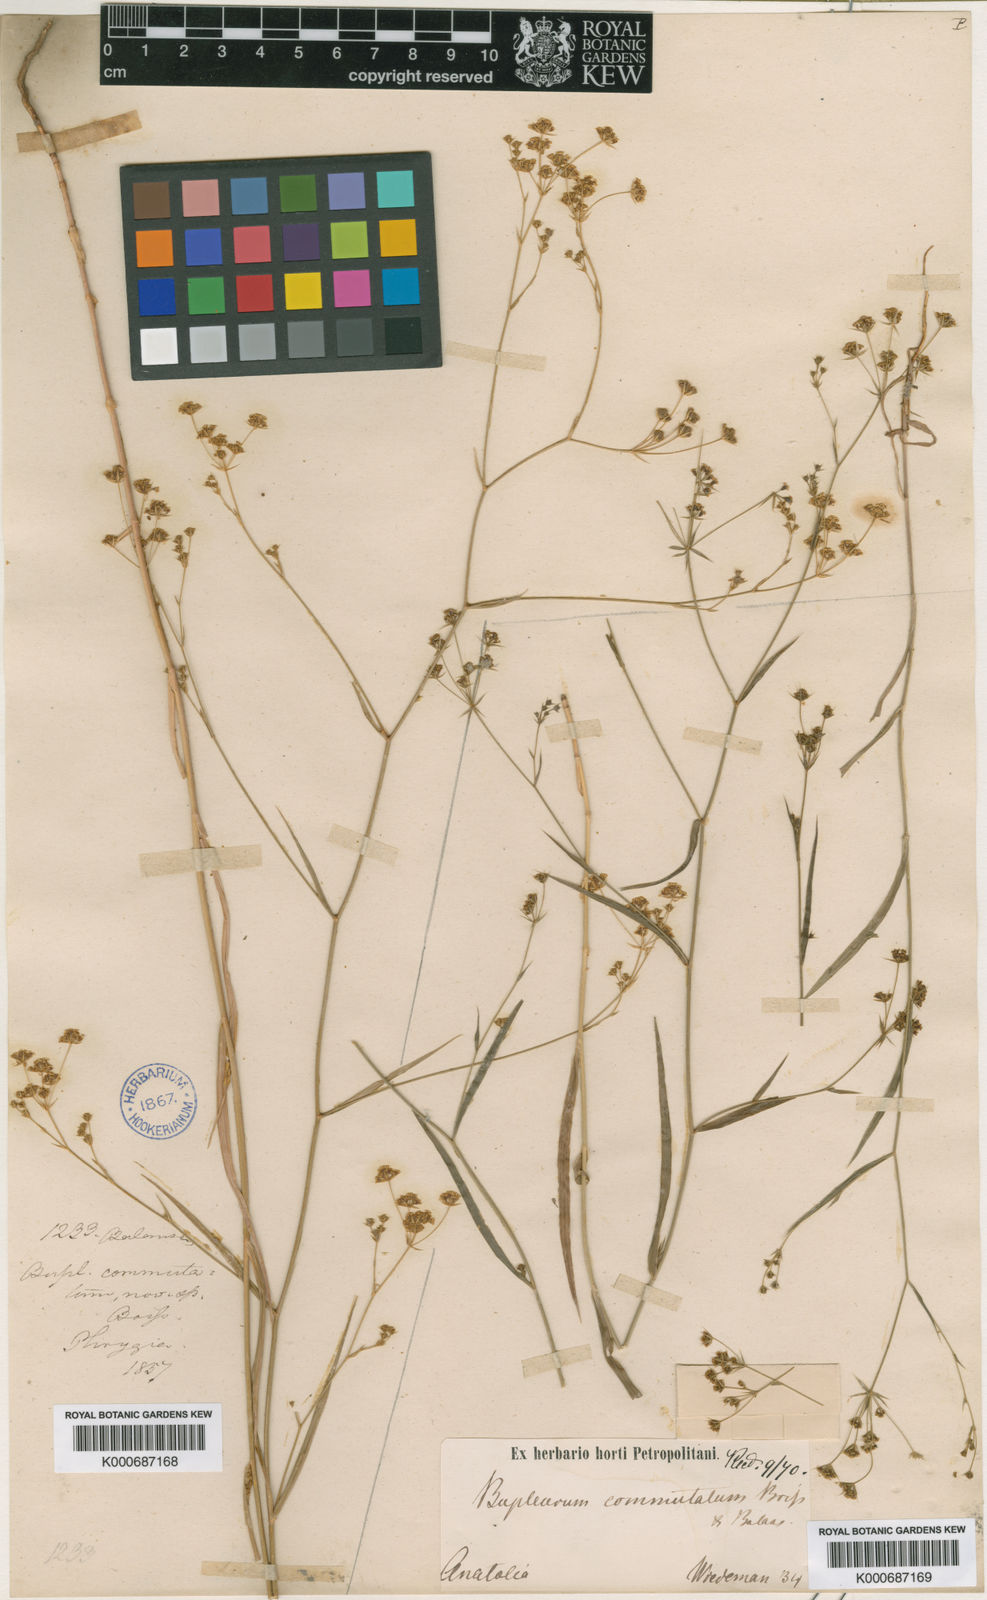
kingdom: Plantae
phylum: Tracheophyta
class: Magnoliopsida
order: Apiales
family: Apiaceae
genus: Bupleurum
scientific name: Bupleurum brevicaule
